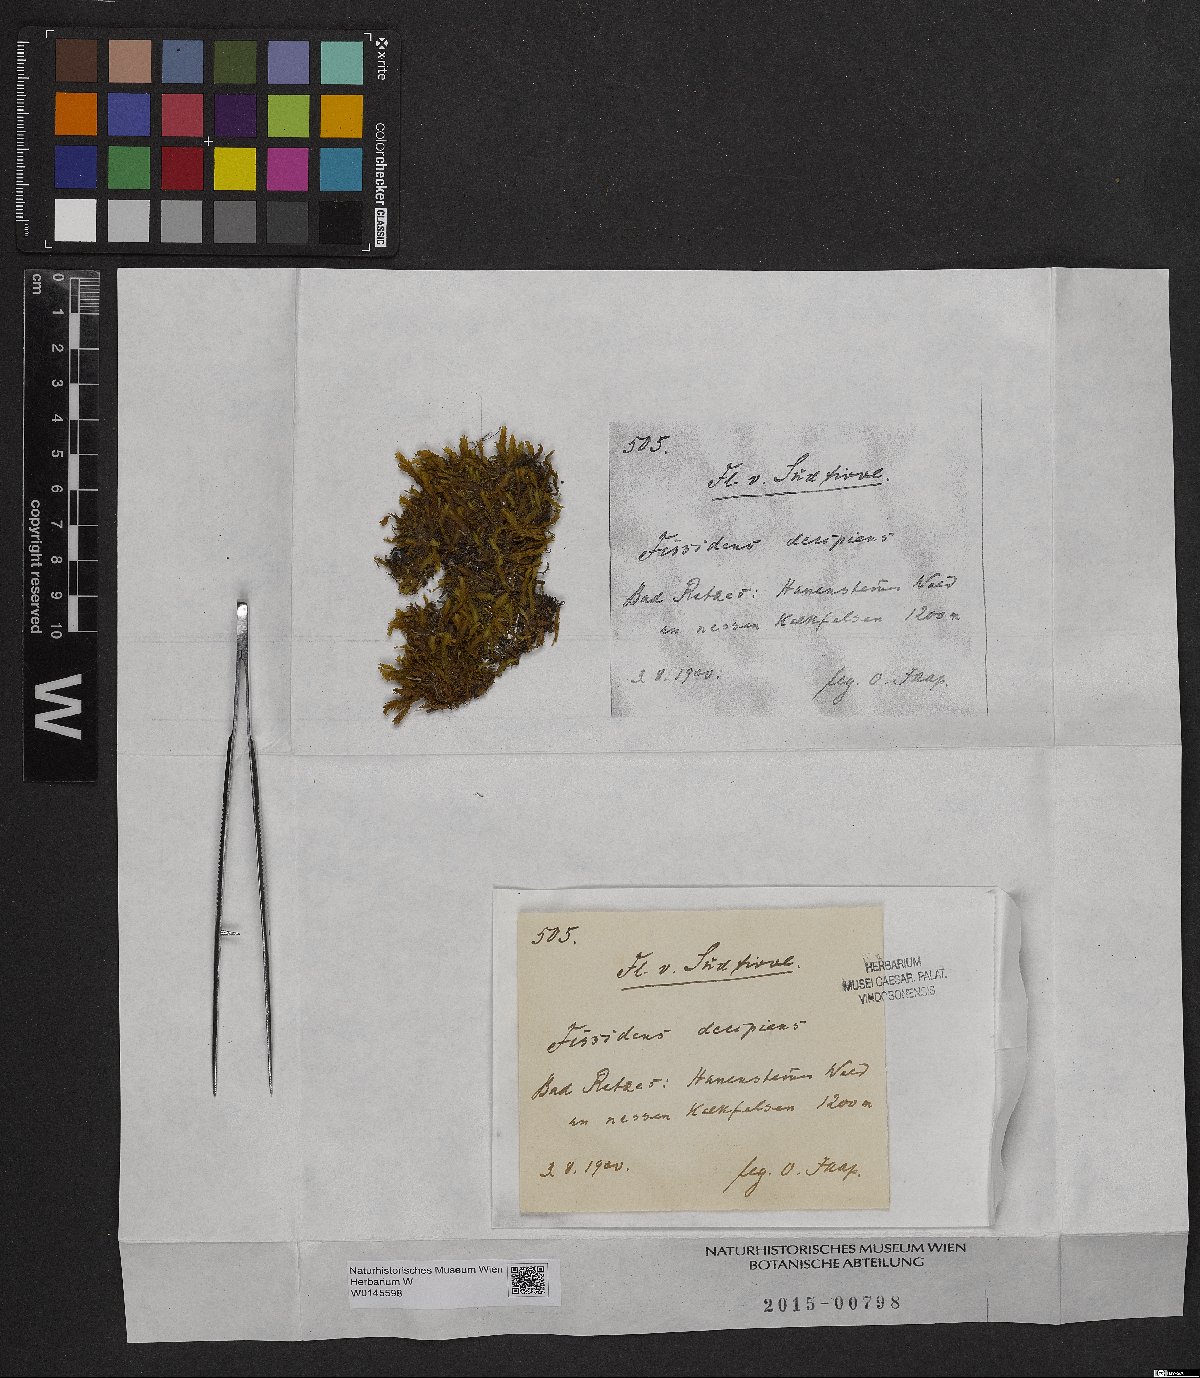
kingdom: Plantae
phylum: Bryophyta
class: Bryopsida
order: Dicranales
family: Fissidentaceae
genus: Fissidens
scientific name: Fissidens dubius
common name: Rock pocket moss
